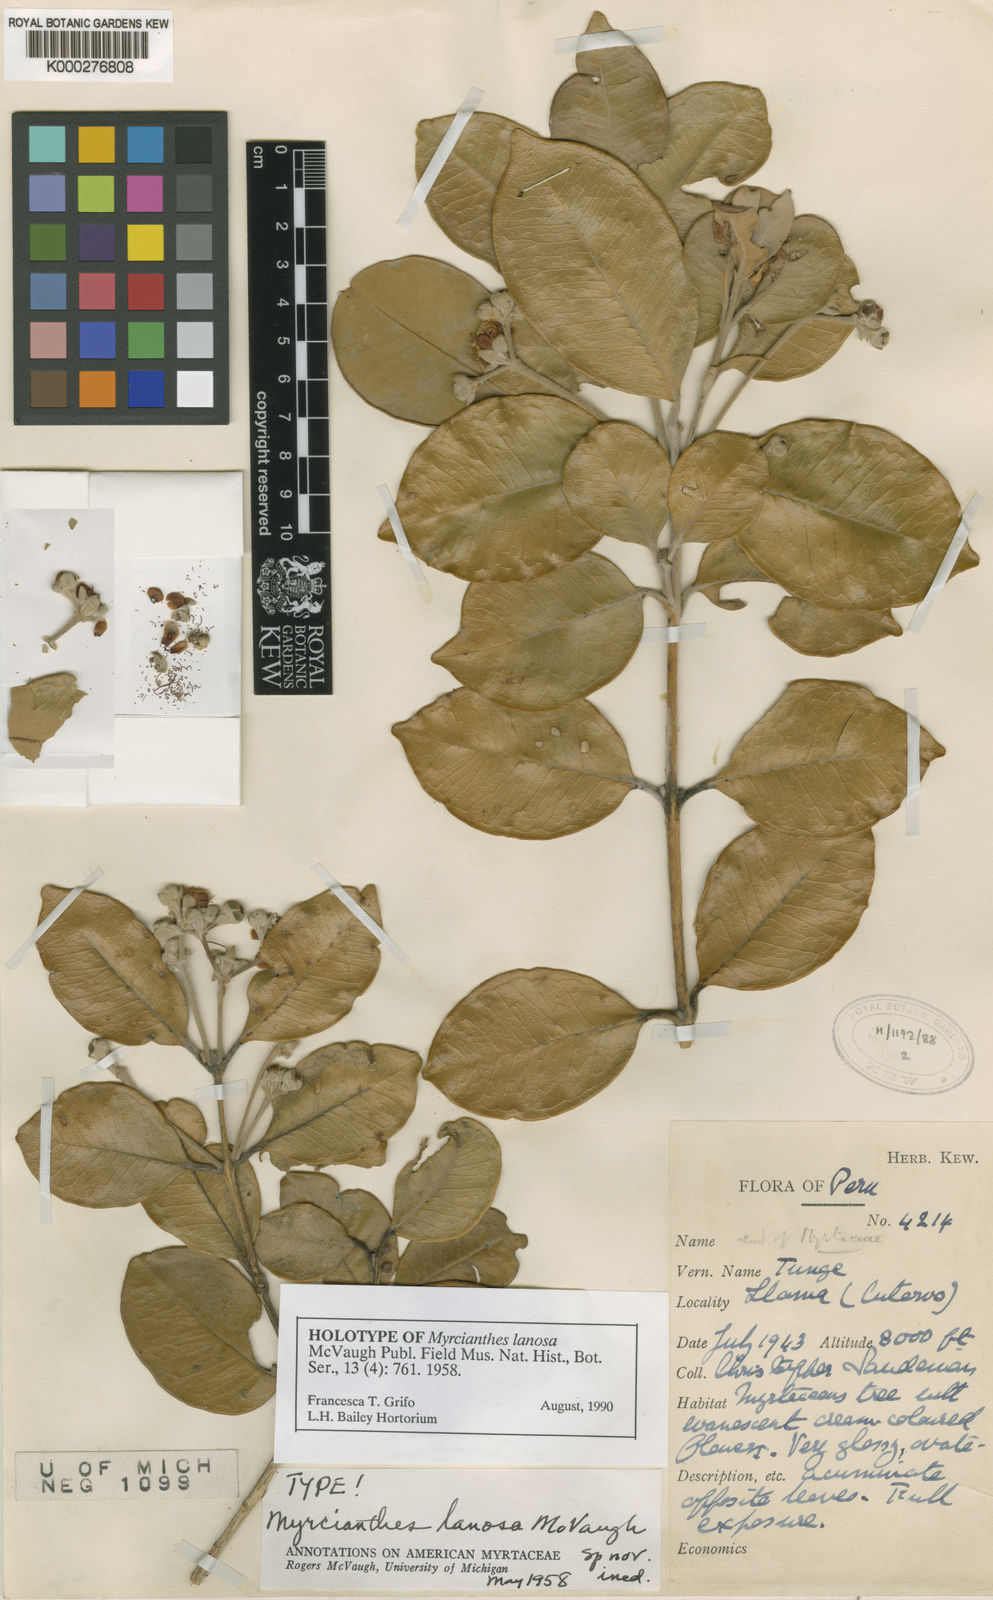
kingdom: Plantae
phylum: Tracheophyta
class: Magnoliopsida
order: Myrtales
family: Myrtaceae
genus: Myrcianthes
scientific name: Myrcianthes lanosa
